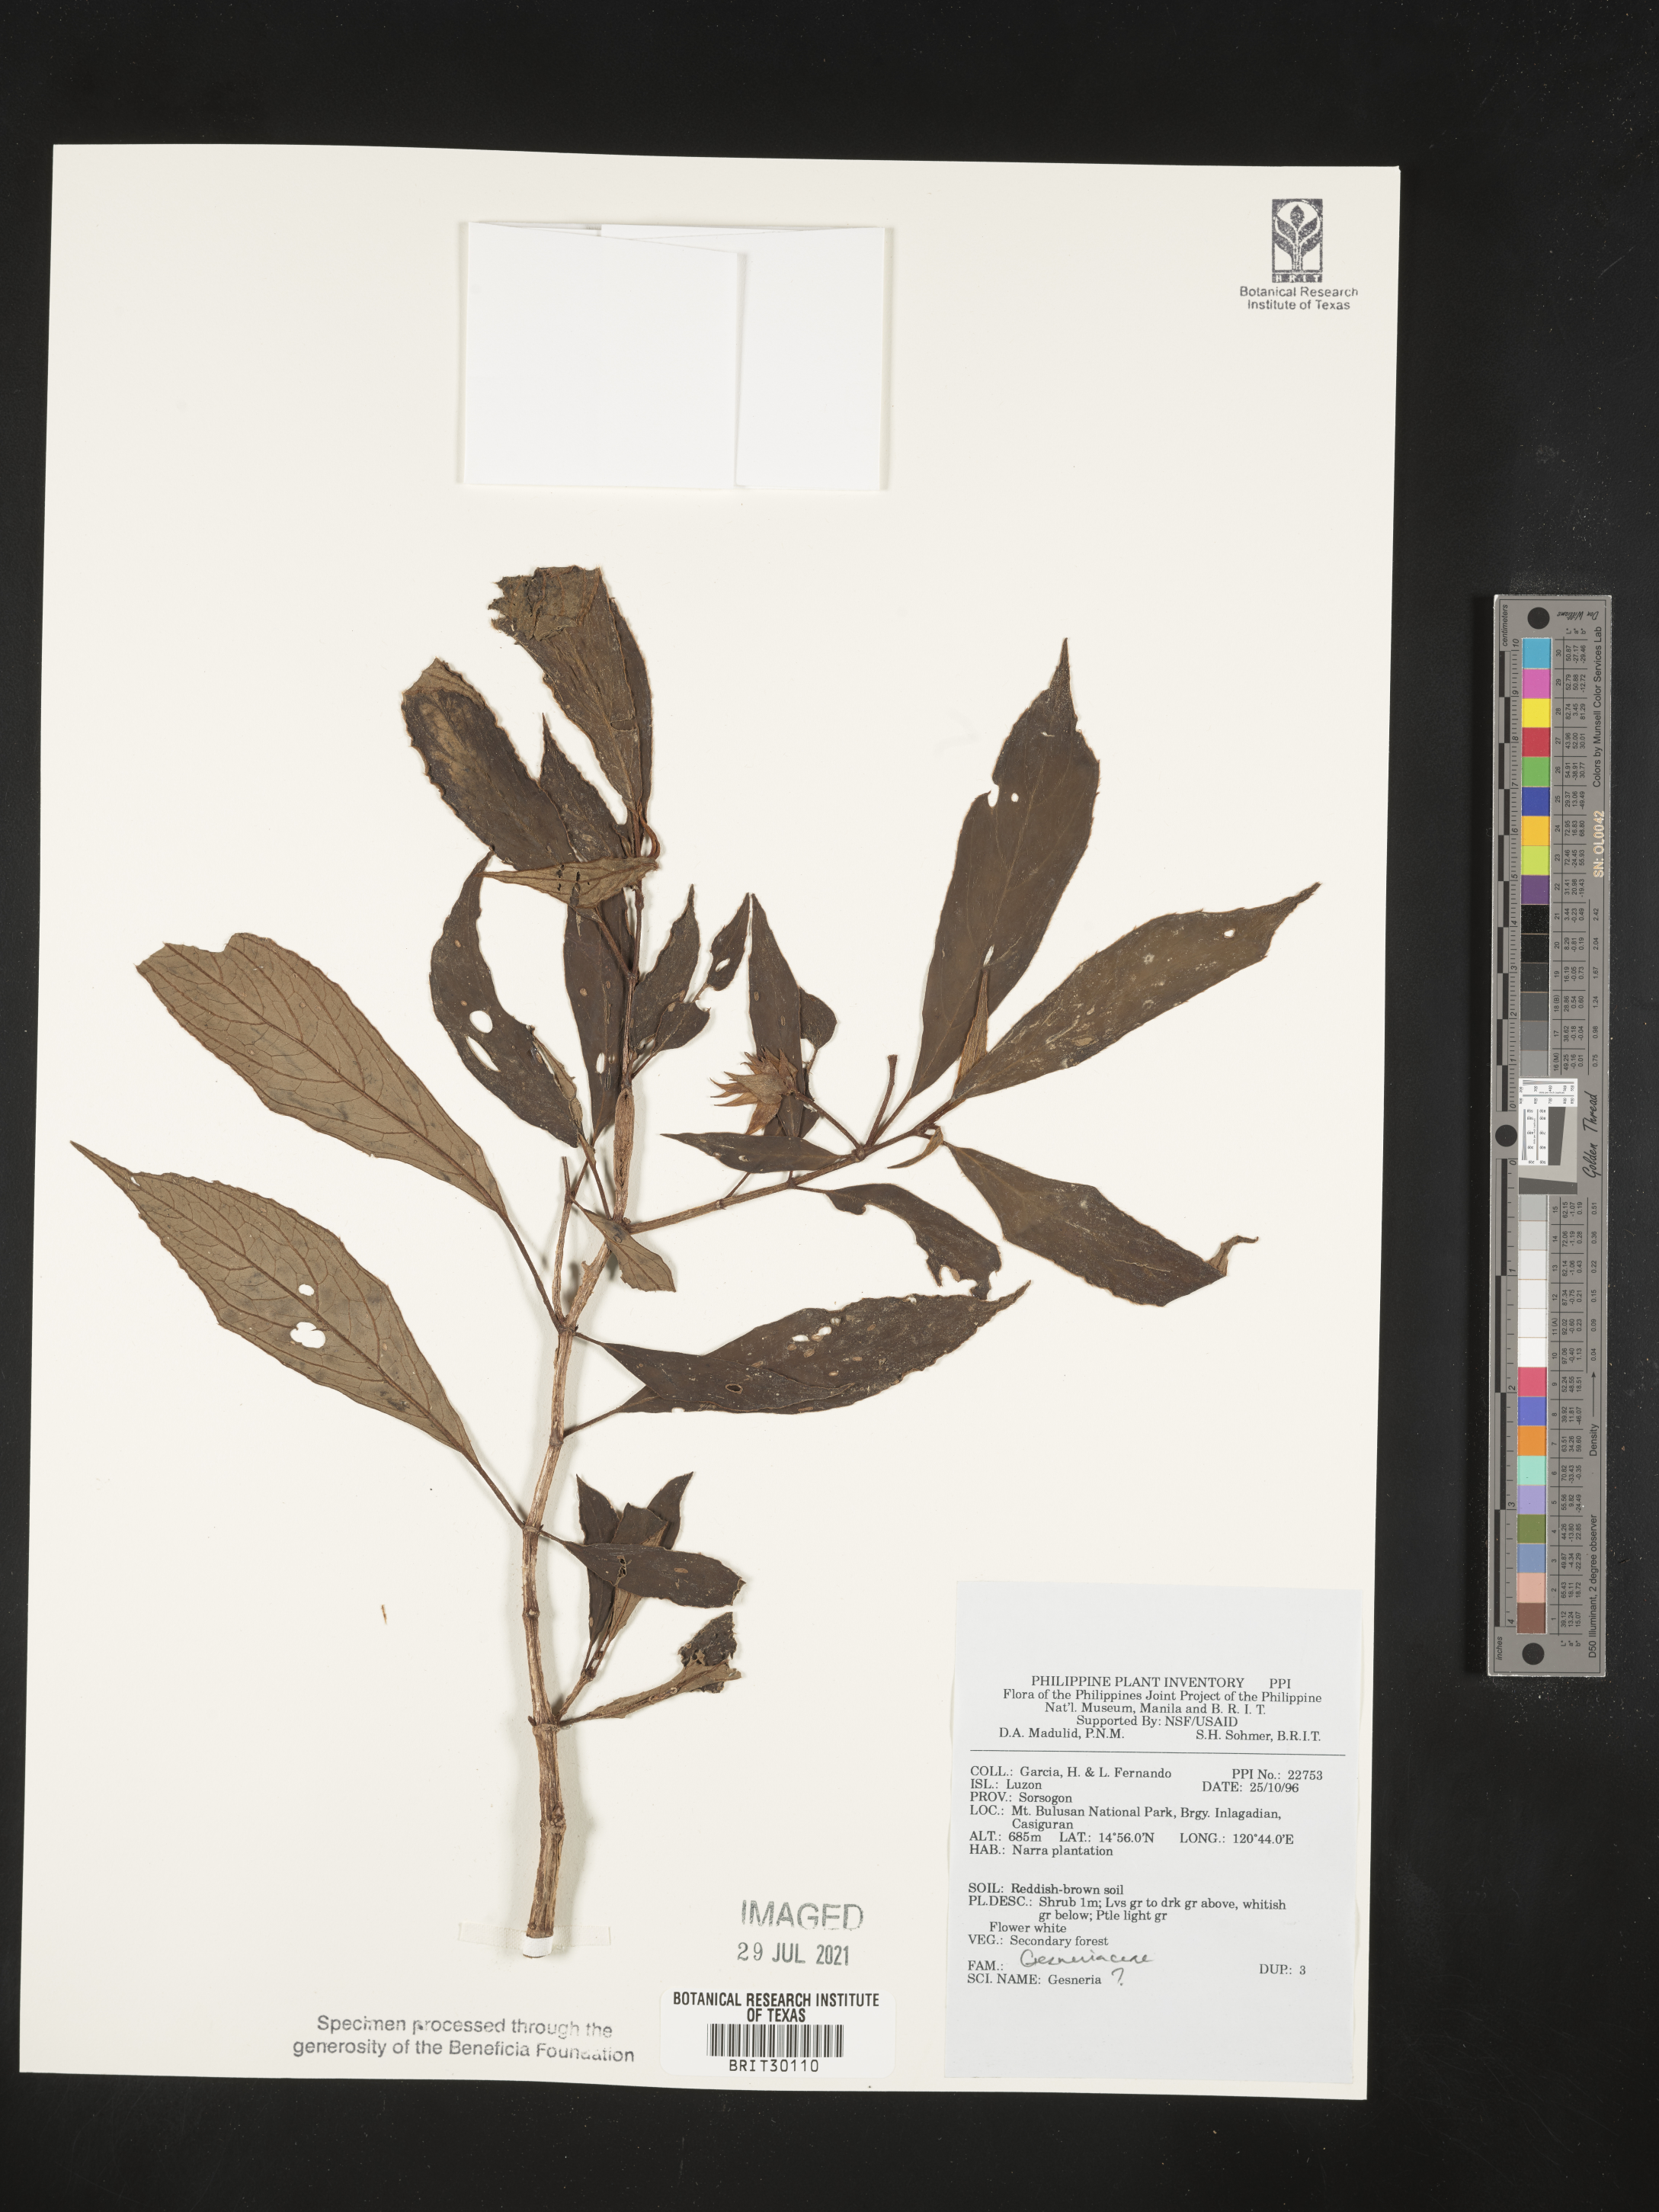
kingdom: Plantae
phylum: Tracheophyta
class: Magnoliopsida
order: Lamiales
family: Gesneriaceae
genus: Gesneria
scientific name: Gesneria
